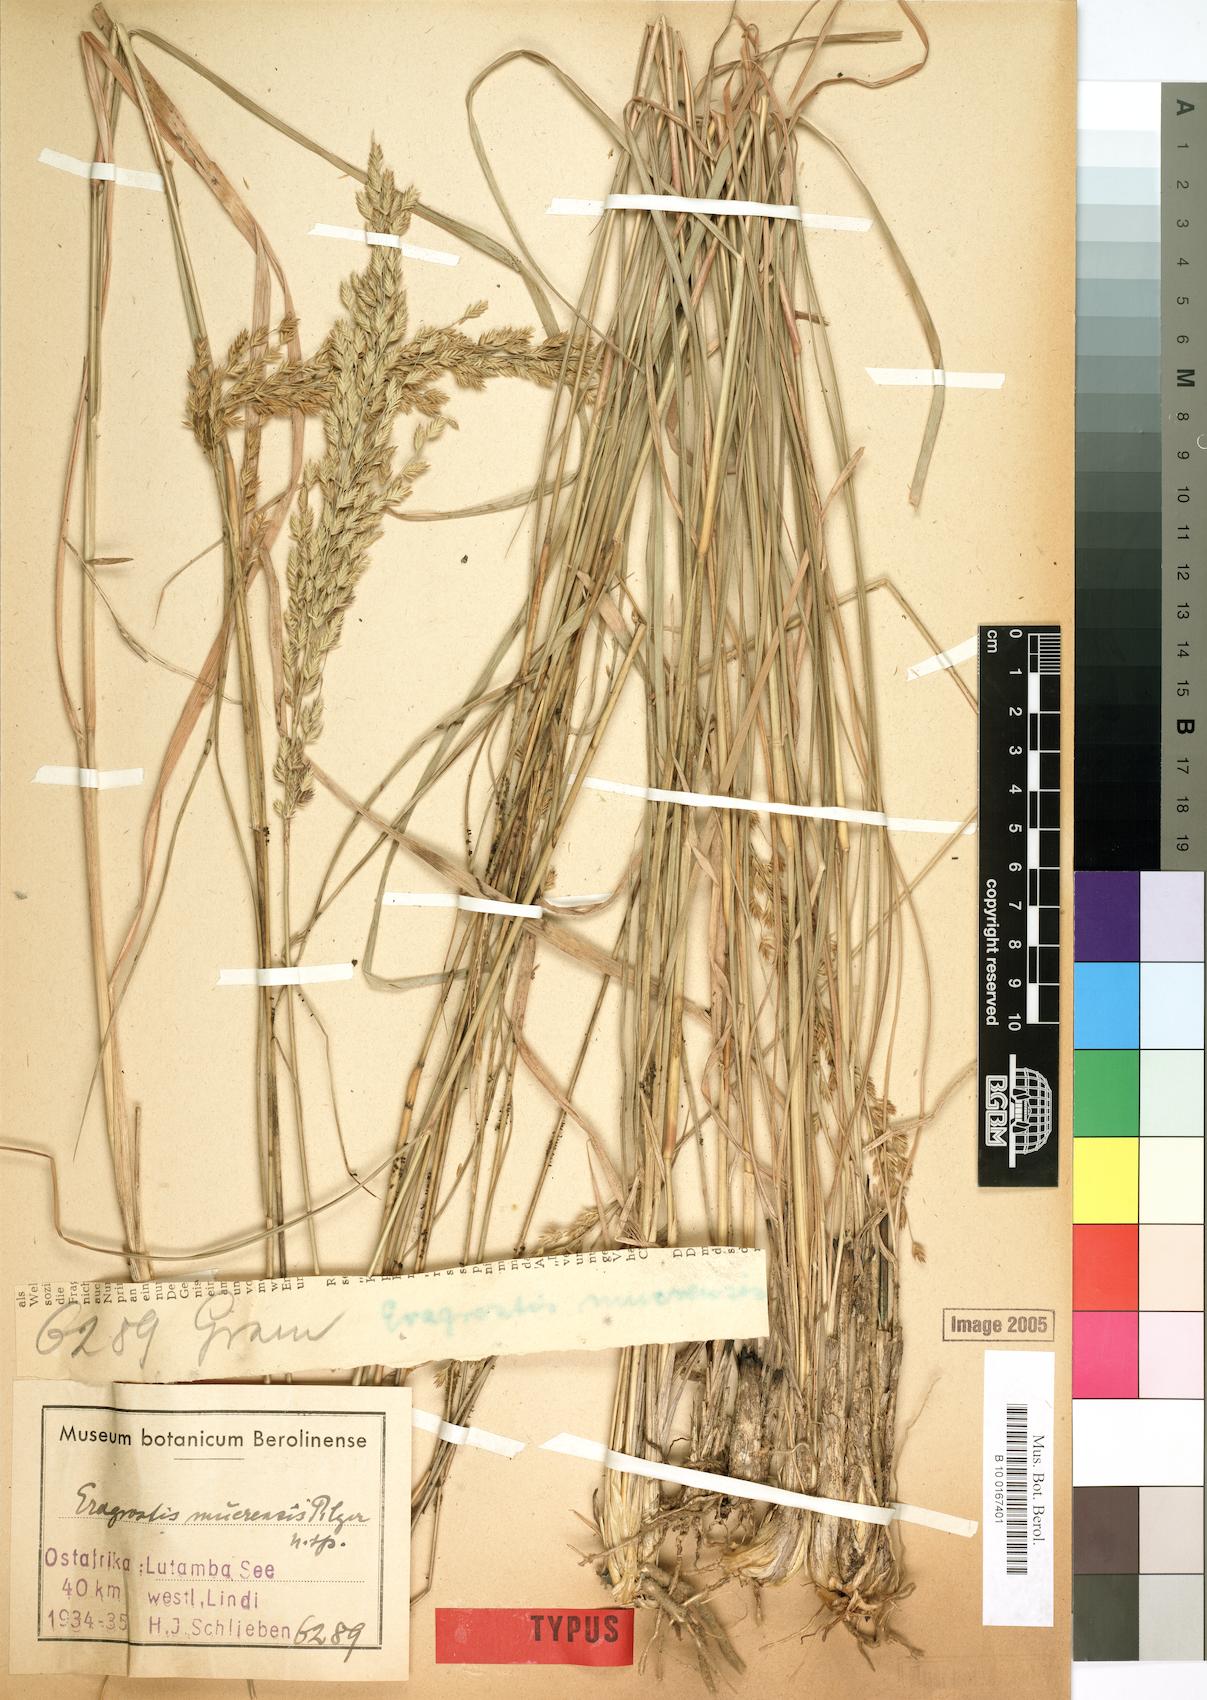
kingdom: Plantae
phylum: Tracheophyta
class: Liliopsida
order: Poales
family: Poaceae
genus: Eragrostis
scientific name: Eragrostis muerensis
